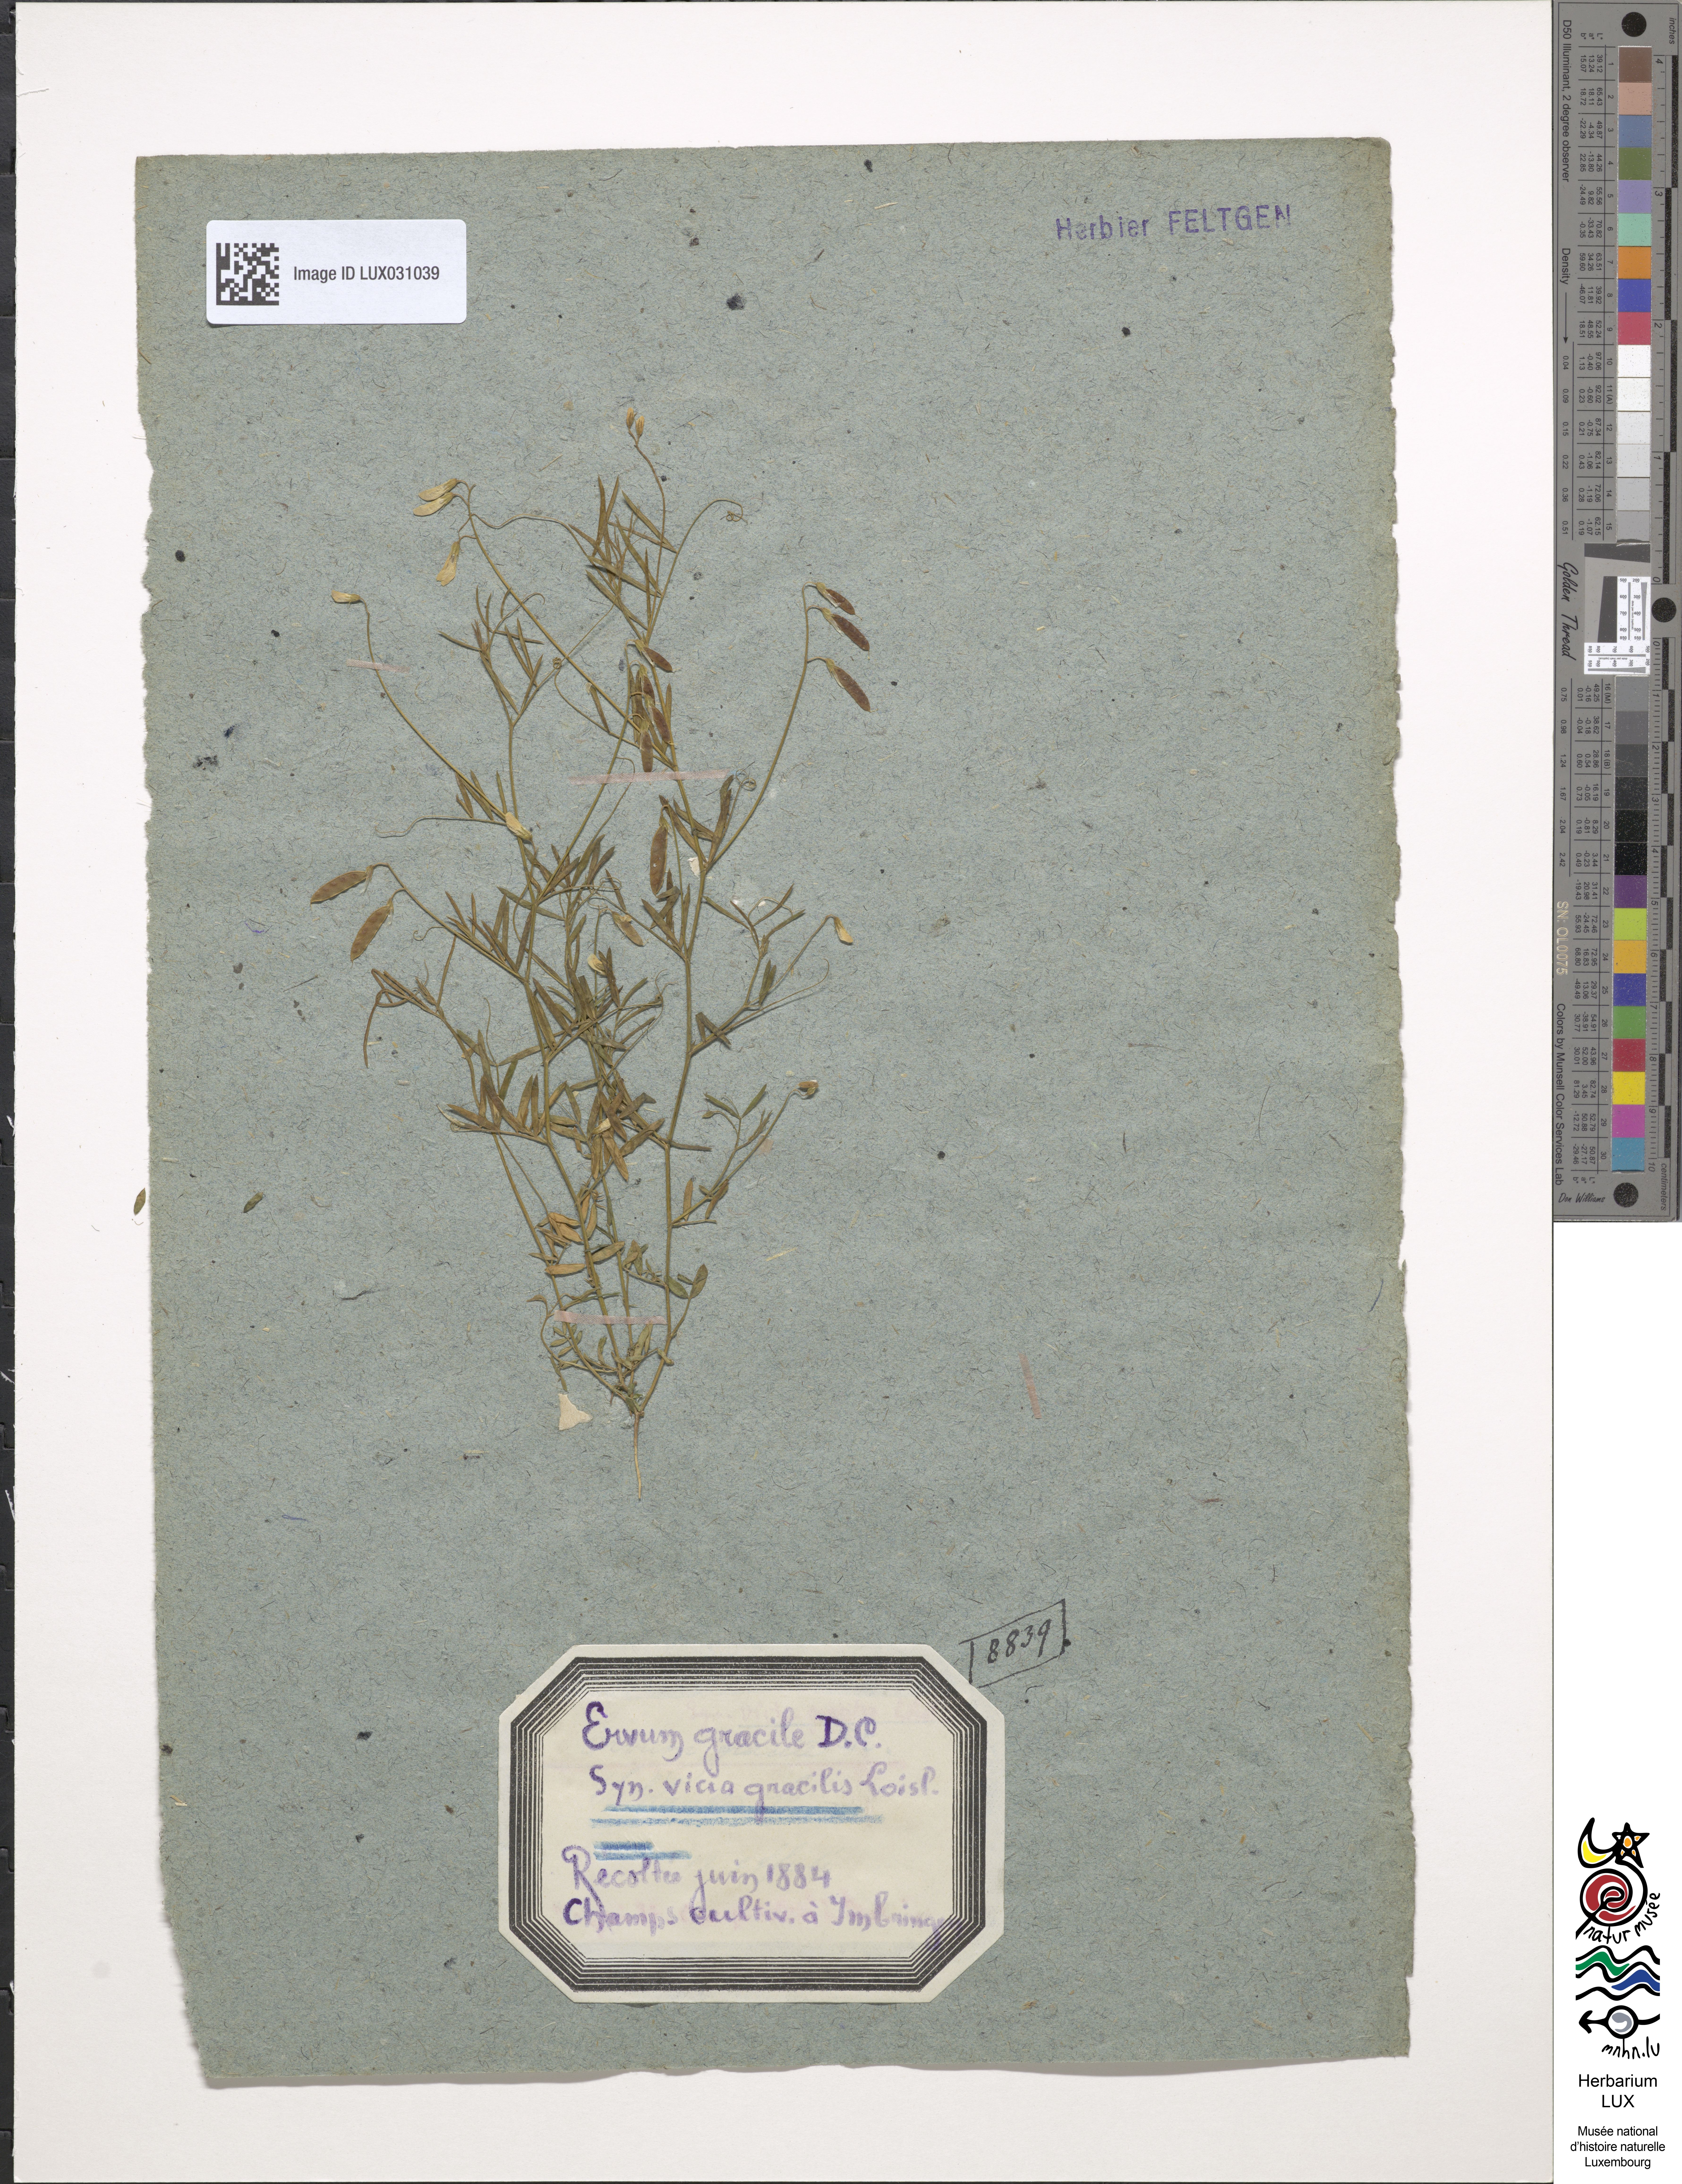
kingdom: Plantae
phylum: Tracheophyta
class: Magnoliopsida
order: Fabales
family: Fabaceae
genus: Vicia
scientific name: Vicia parviflora
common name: Slender tare
